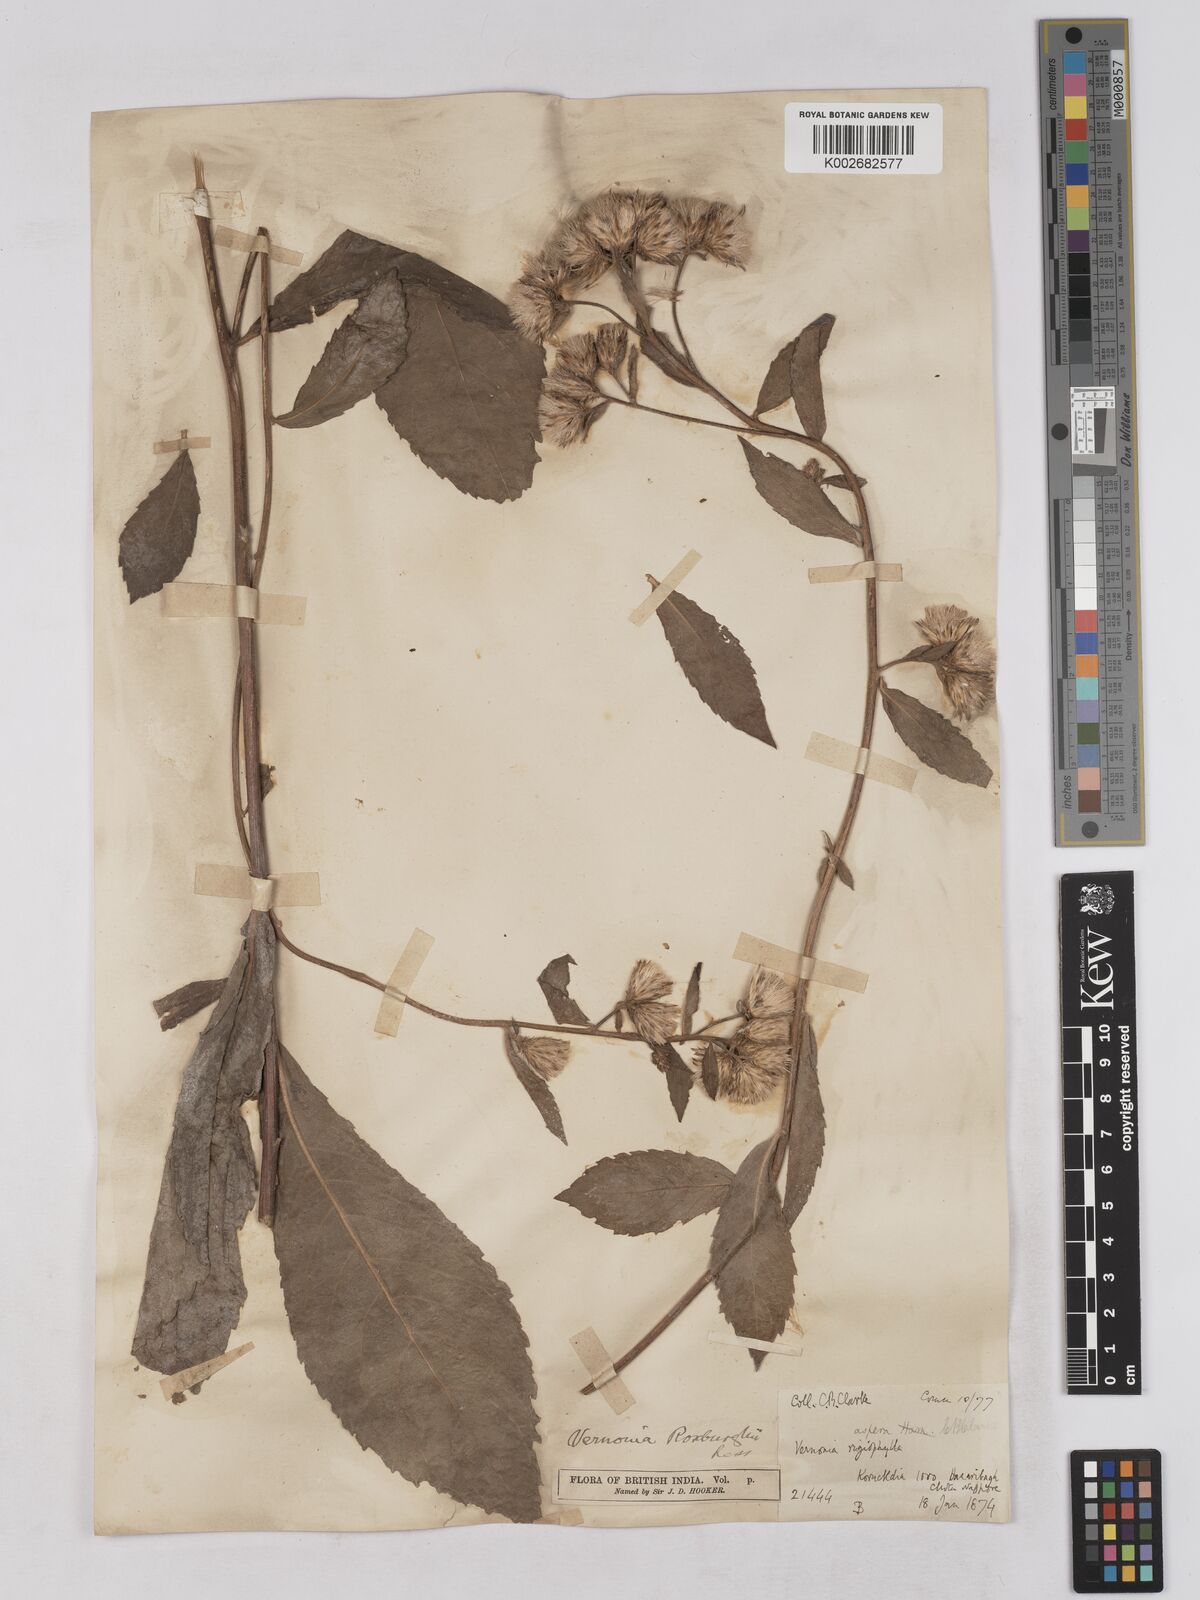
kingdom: Plantae
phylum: Tracheophyta
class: Magnoliopsida
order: Asterales
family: Asteraceae
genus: Acilepis
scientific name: Acilepis aspera
